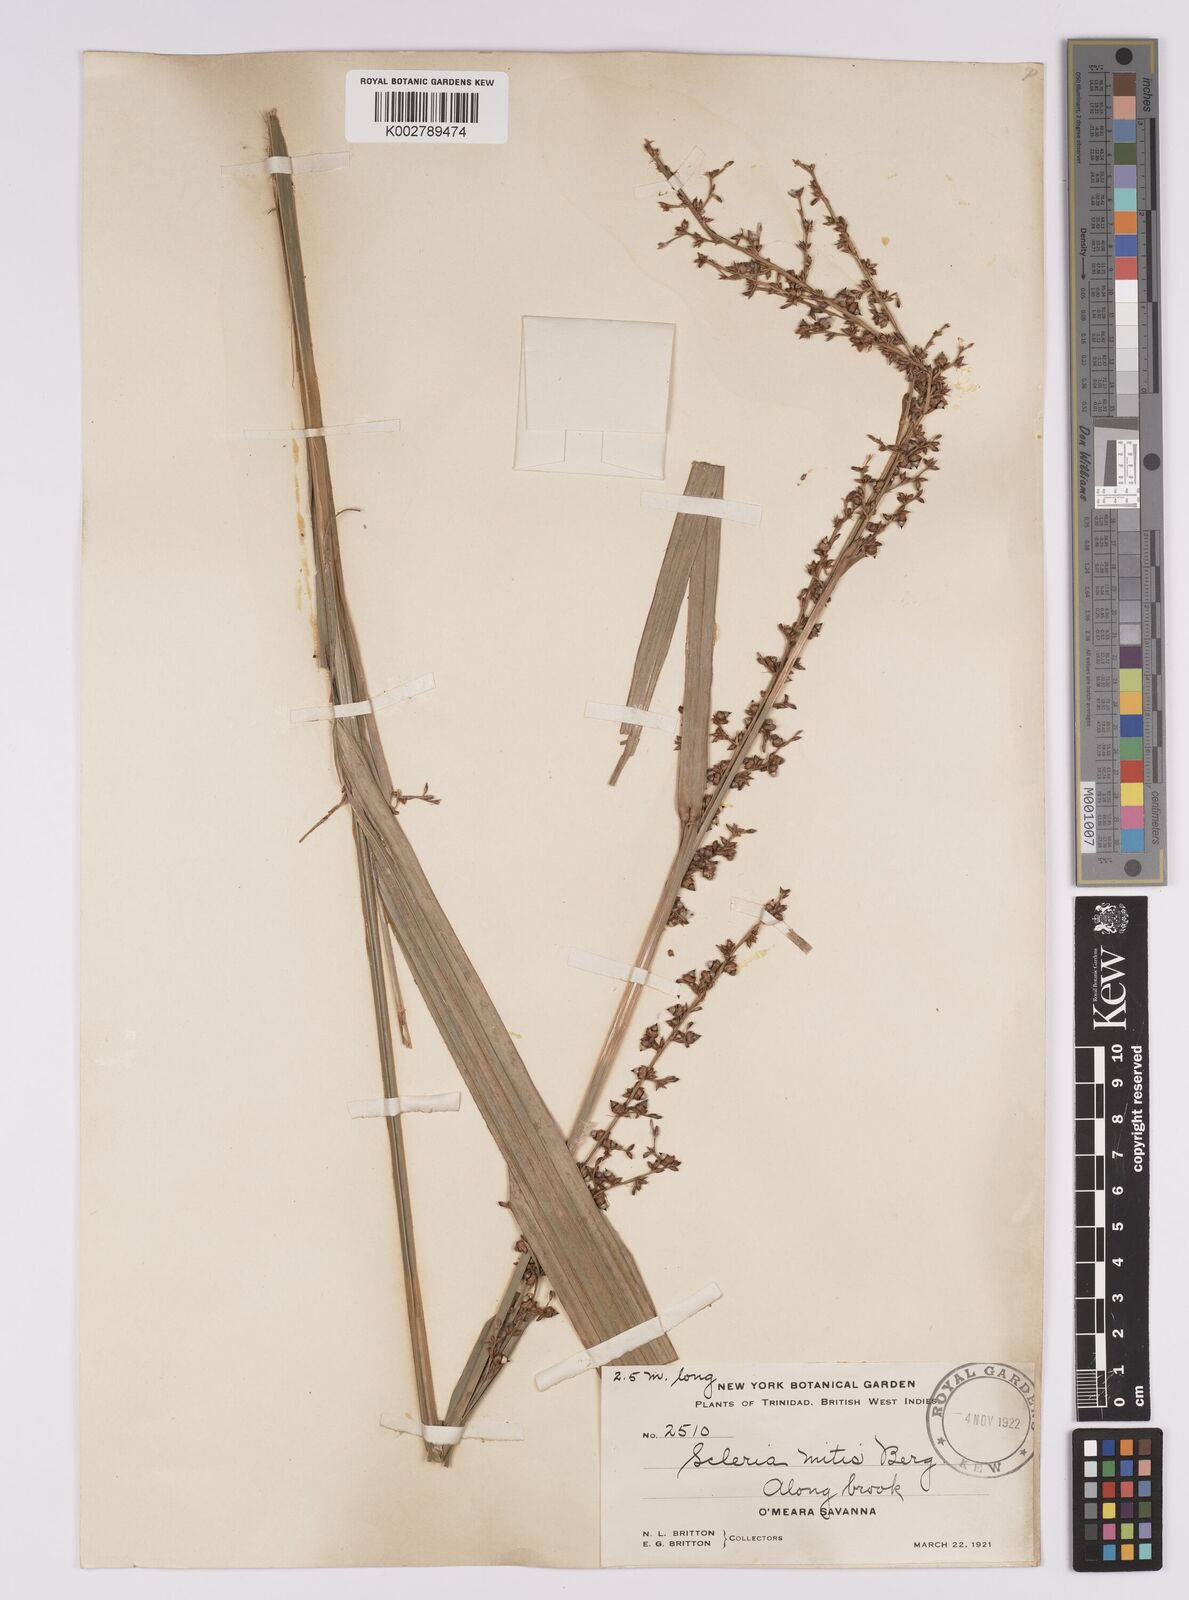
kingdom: Plantae
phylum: Tracheophyta
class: Liliopsida
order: Poales
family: Cyperaceae
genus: Scleria
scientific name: Scleria mitis
